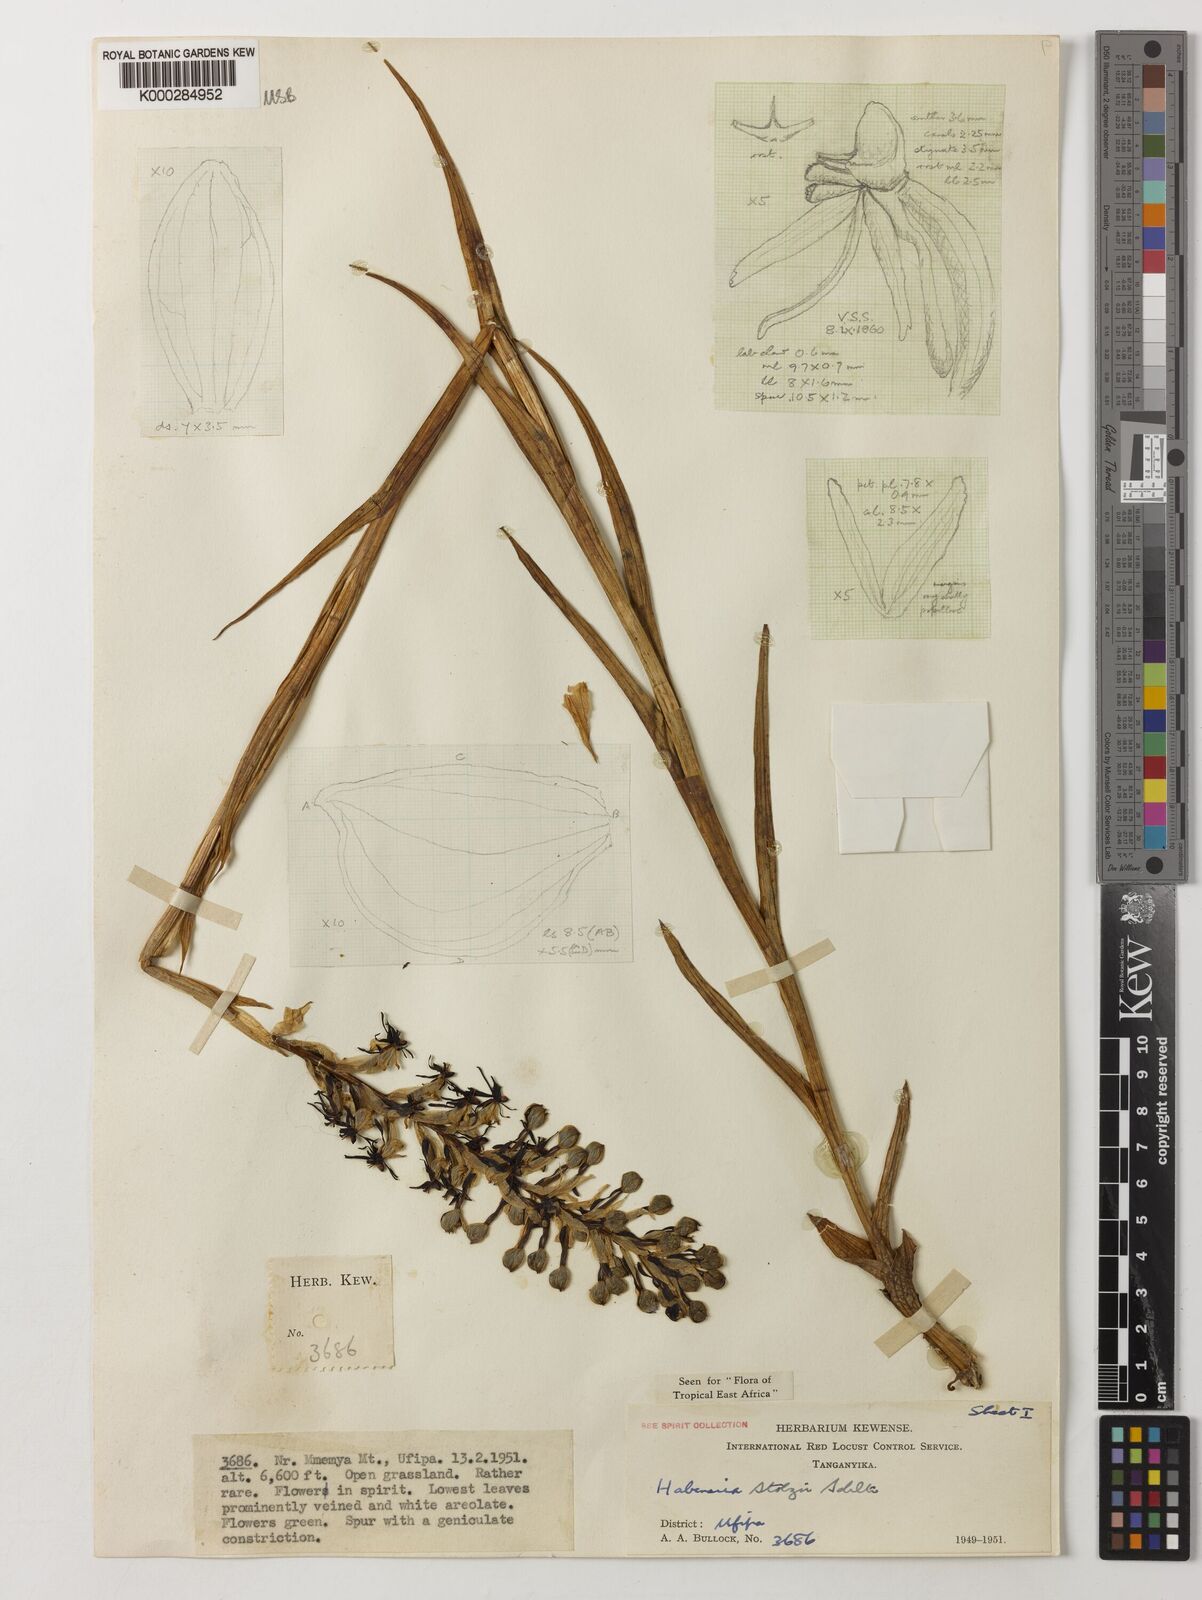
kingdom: Plantae
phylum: Tracheophyta
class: Liliopsida
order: Asparagales
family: Orchidaceae
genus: Habenaria
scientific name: Habenaria tortilis
